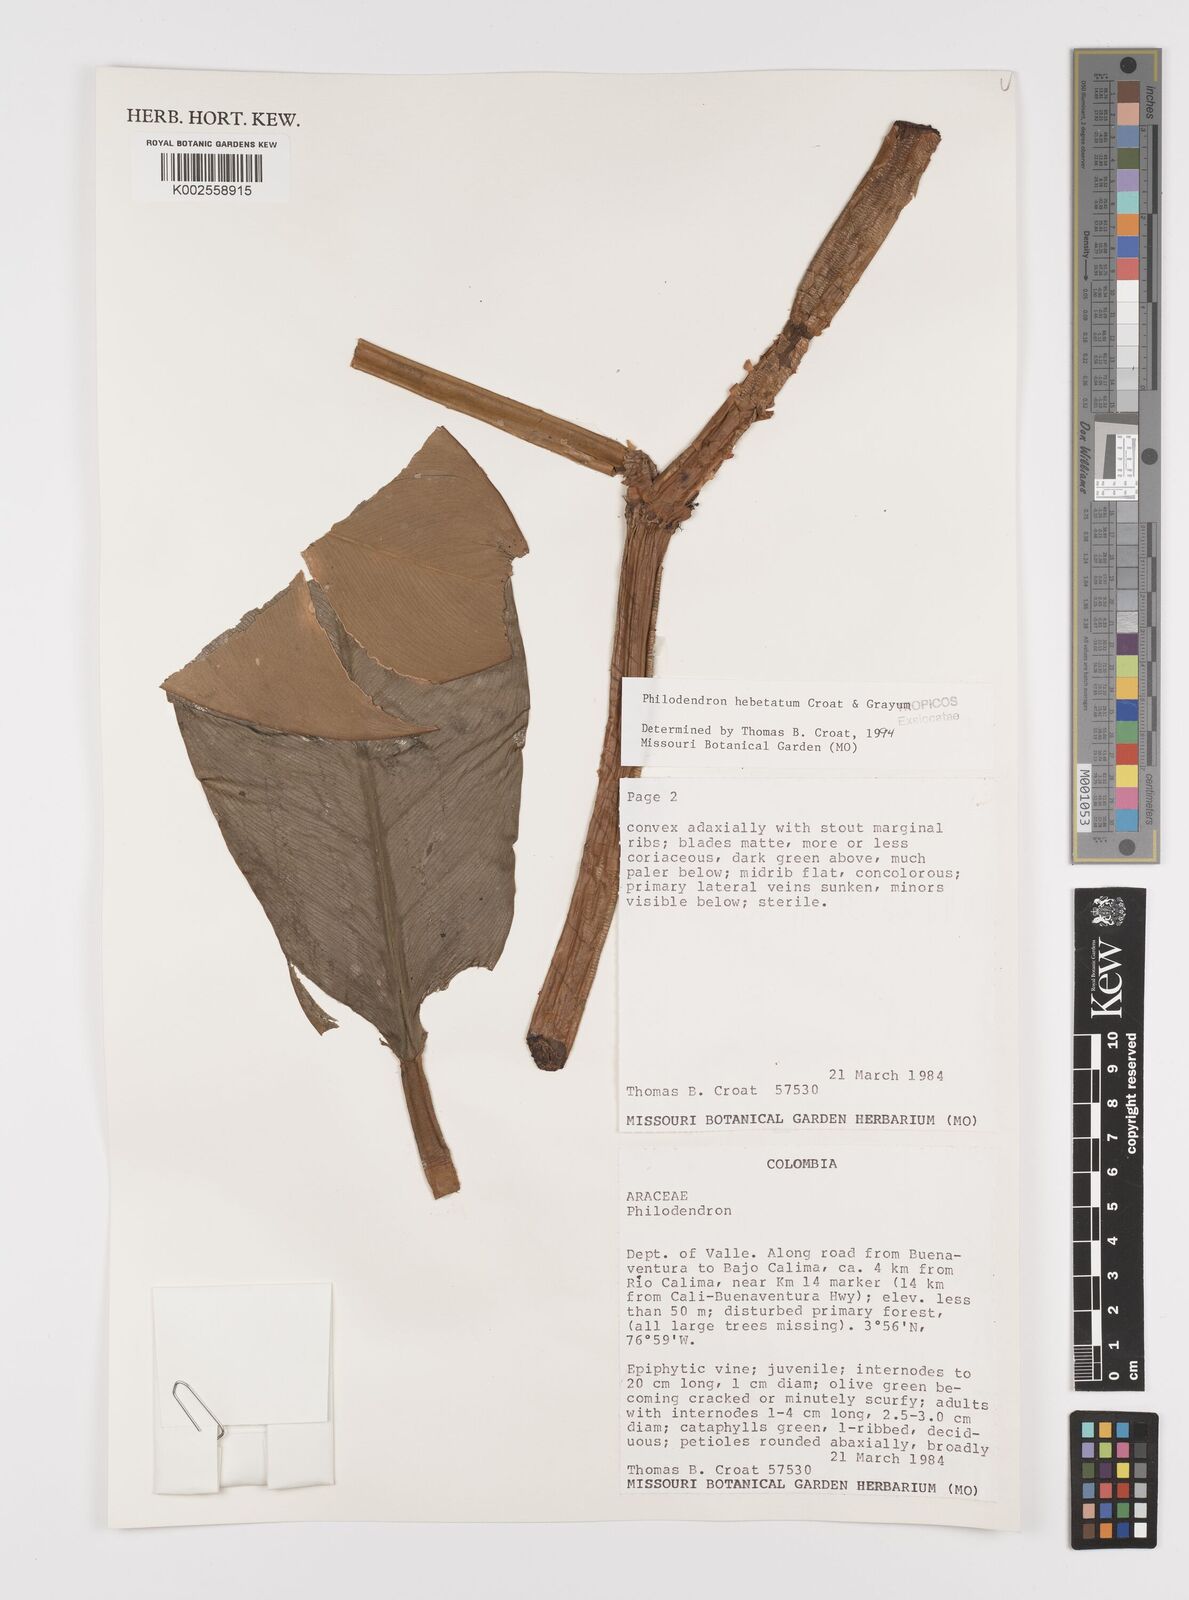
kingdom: Plantae
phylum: Tracheophyta
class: Liliopsida
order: Alismatales
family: Araceae
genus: Philodendron
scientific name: Philodendron hebetatum
